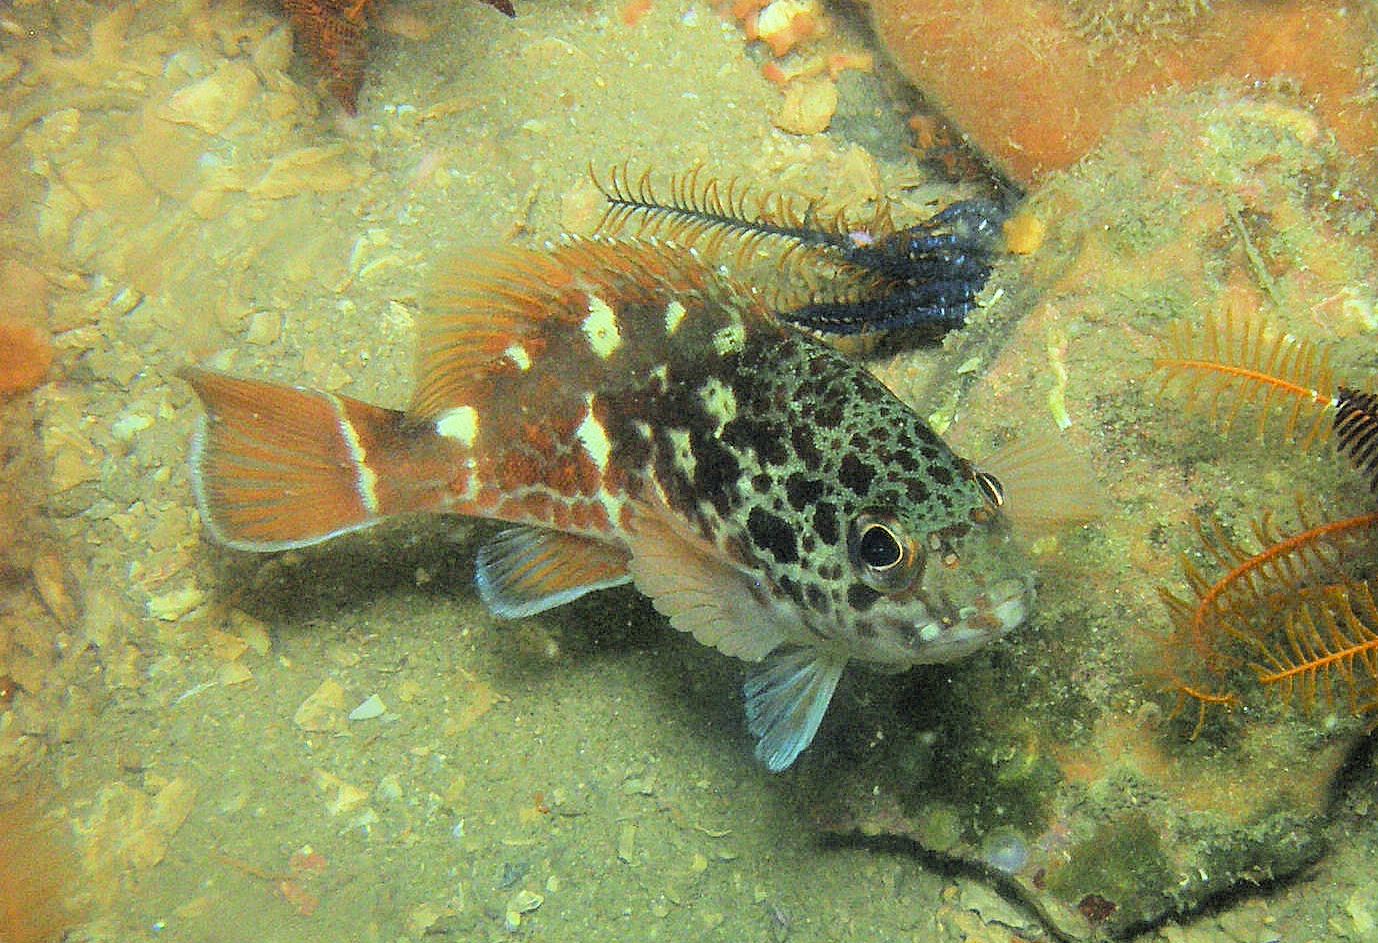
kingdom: Animalia
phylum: Chordata
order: Perciformes
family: Serranidae
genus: Acanthistius
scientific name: Acanthistius joanae
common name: Scalyjaw koester
